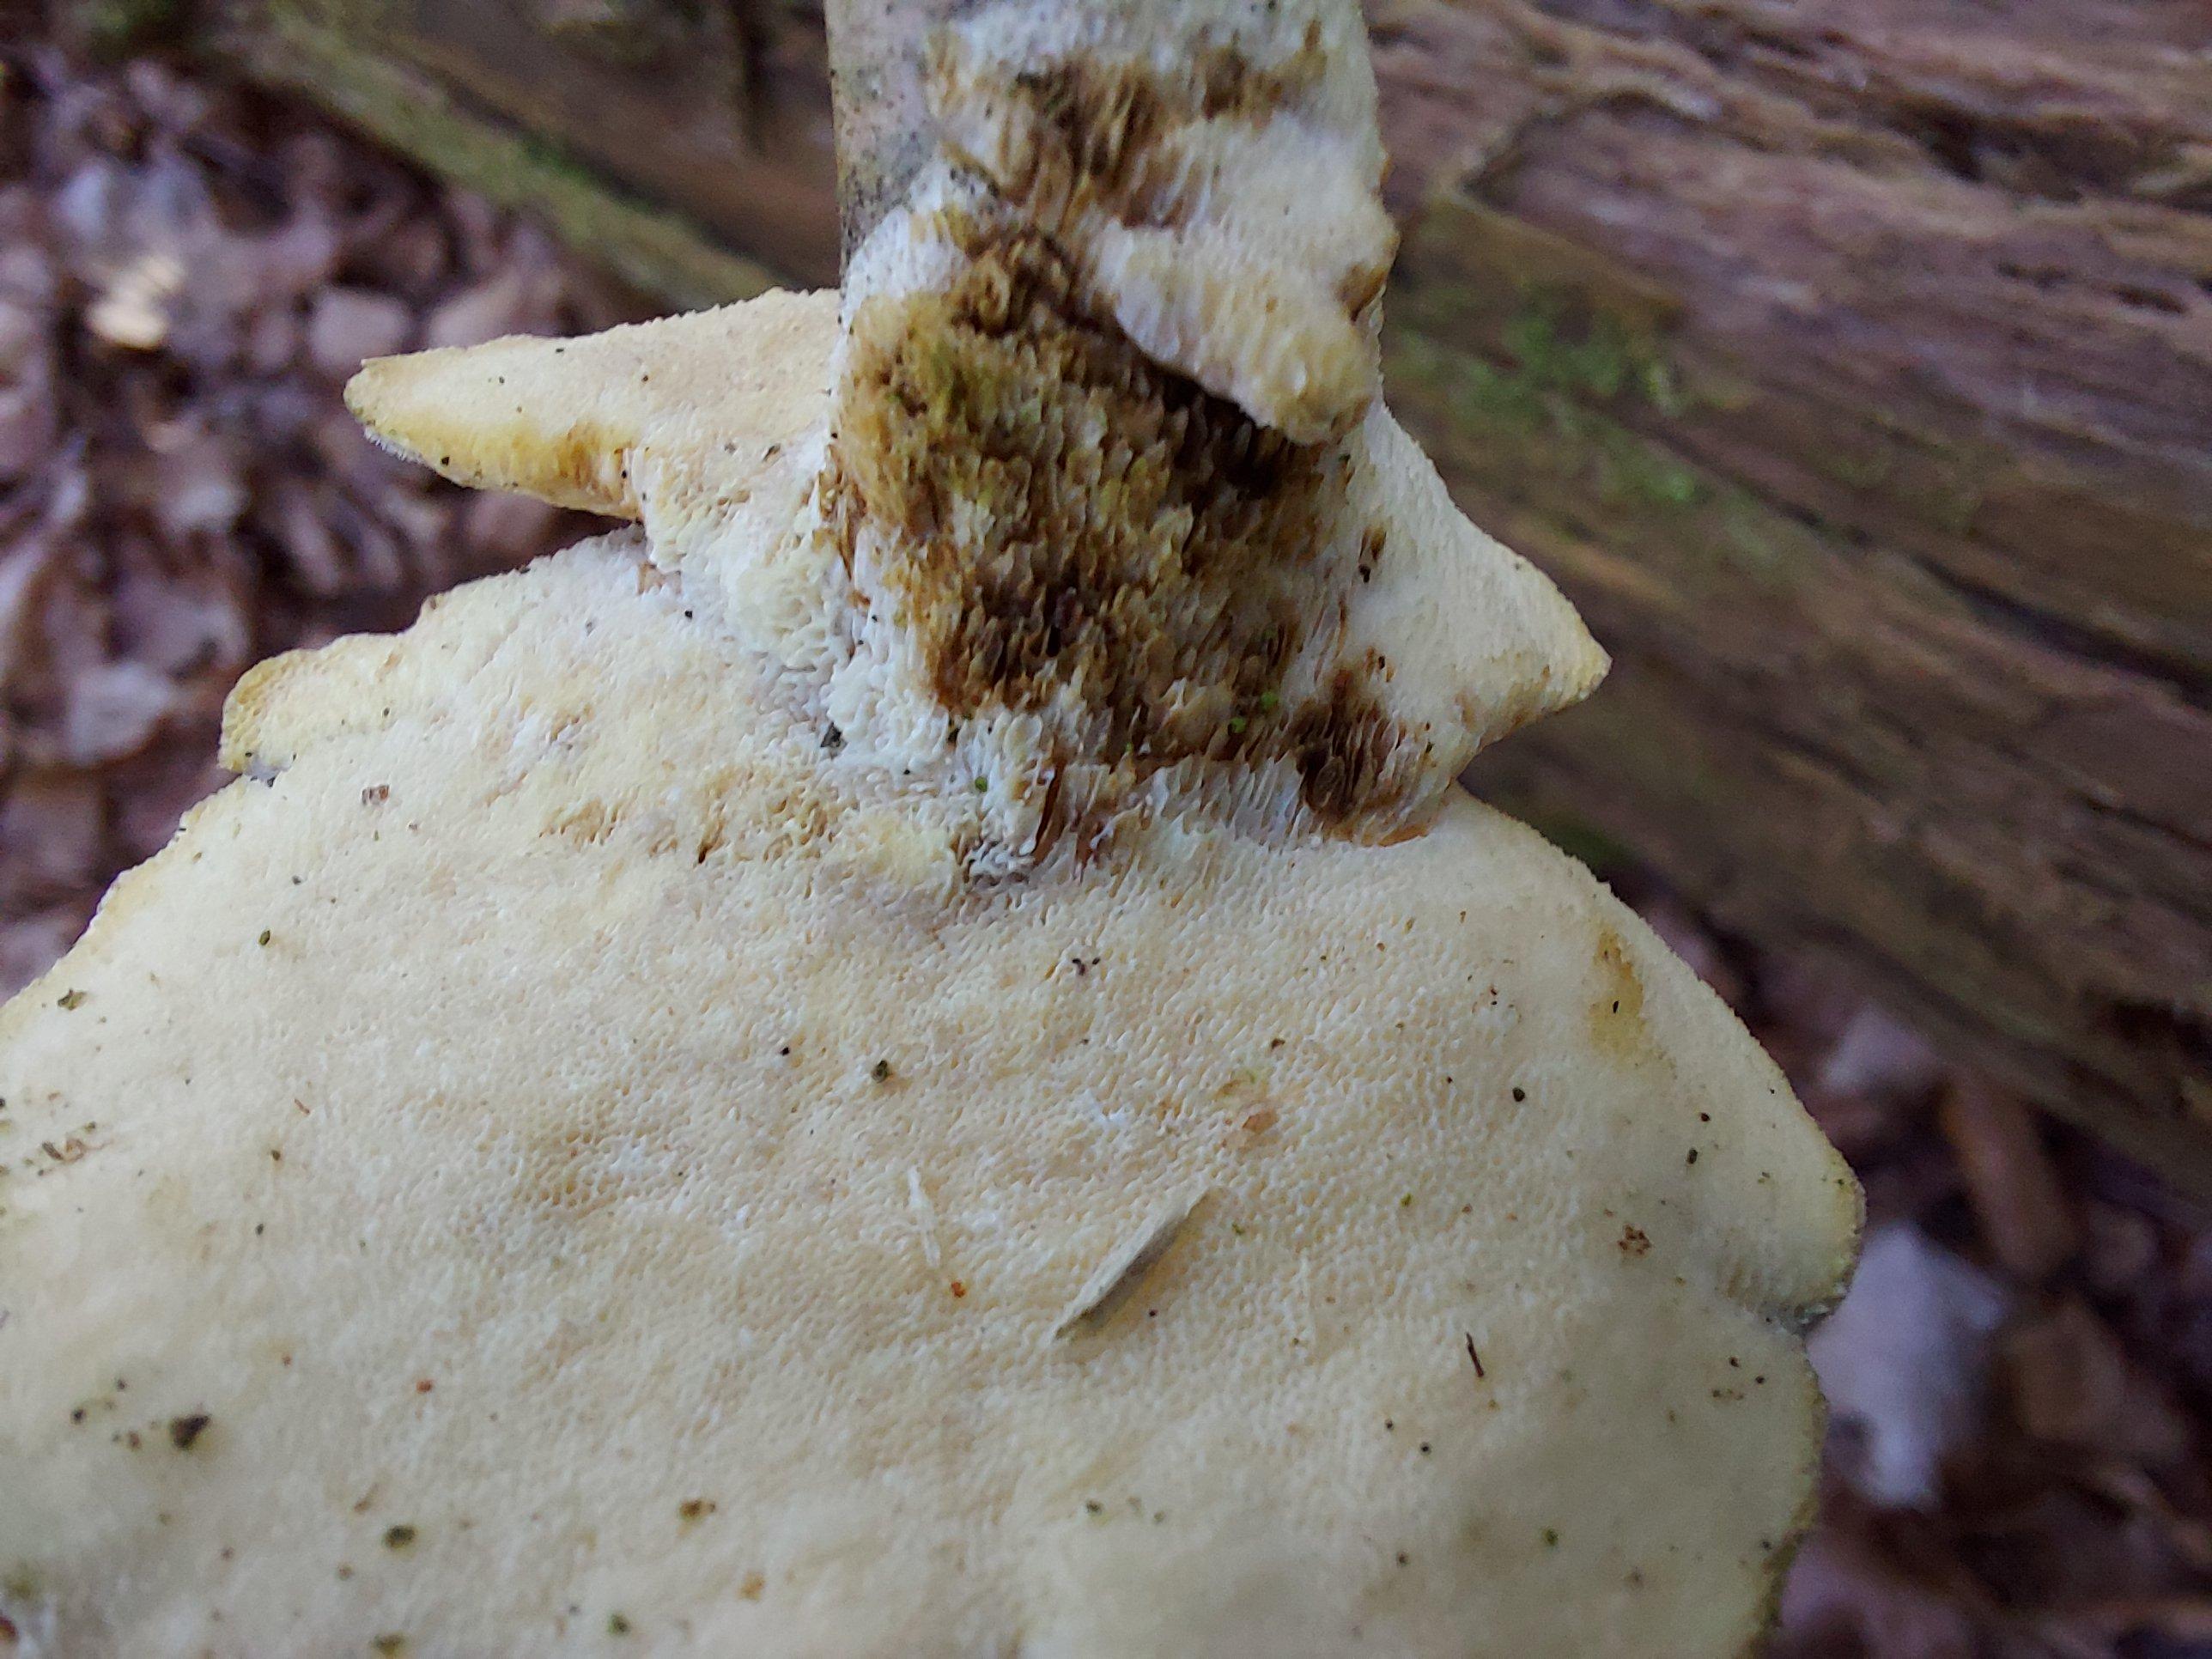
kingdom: Fungi
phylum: Basidiomycota
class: Agaricomycetes
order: Polyporales
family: Polyporaceae
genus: Trametes
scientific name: Trametes hirsuta
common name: håret læderporesvamp
